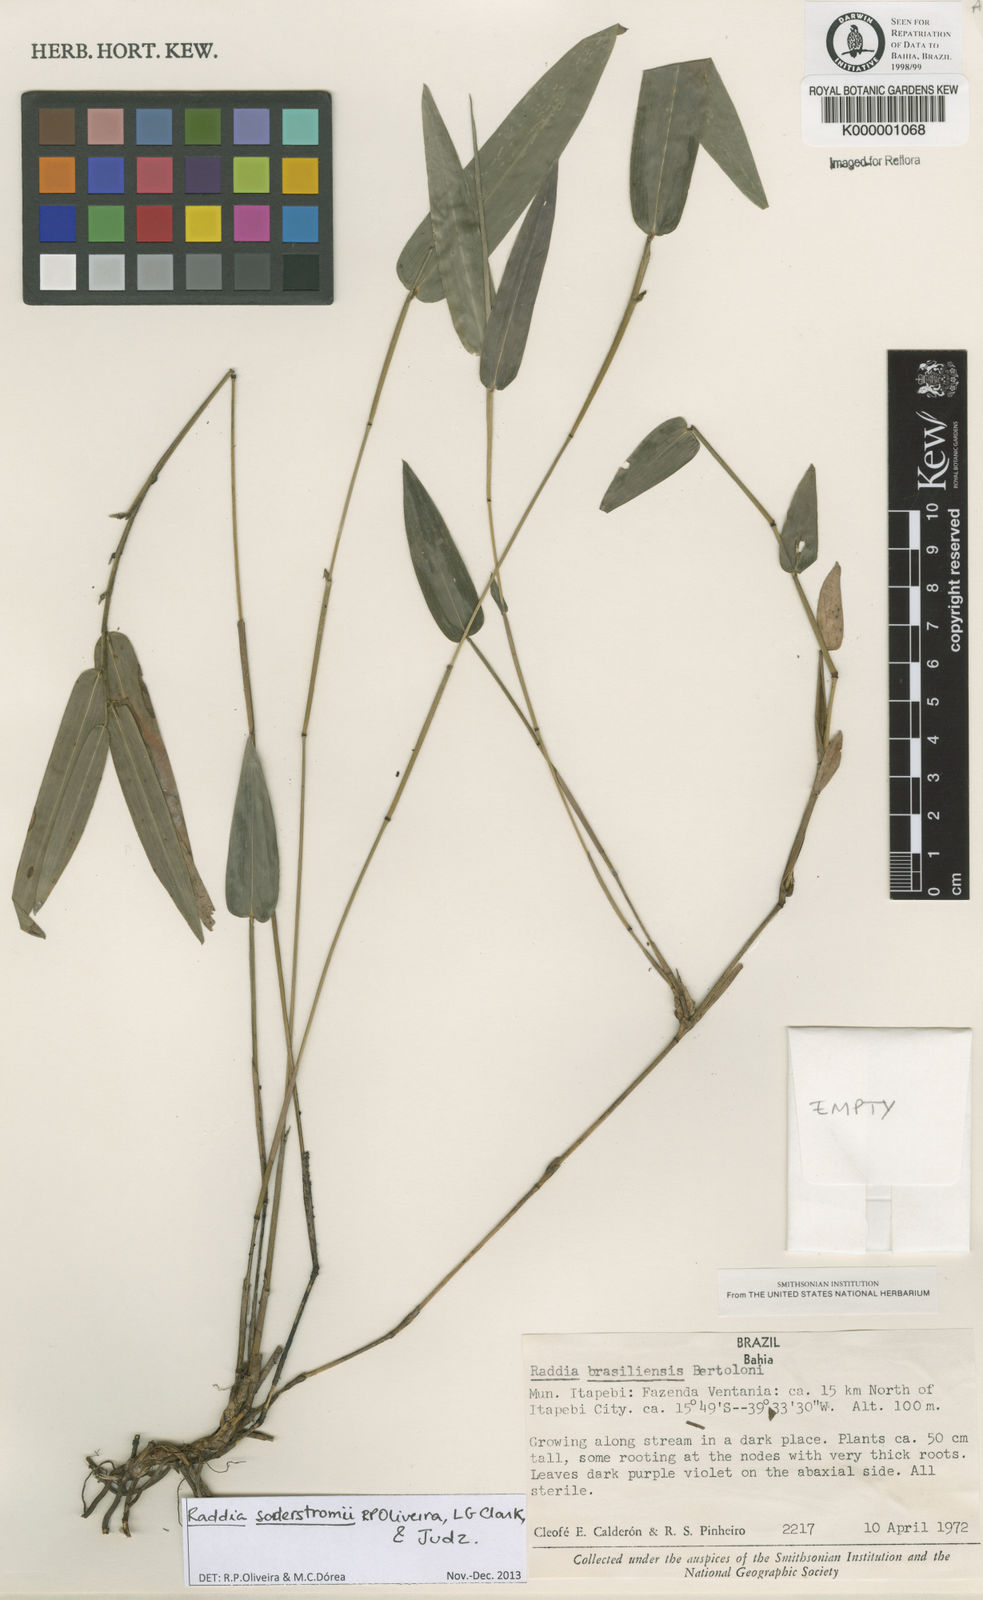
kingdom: Plantae
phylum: Tracheophyta
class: Liliopsida
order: Poales
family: Poaceae
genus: Raddia
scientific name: Raddia brasiliensis
